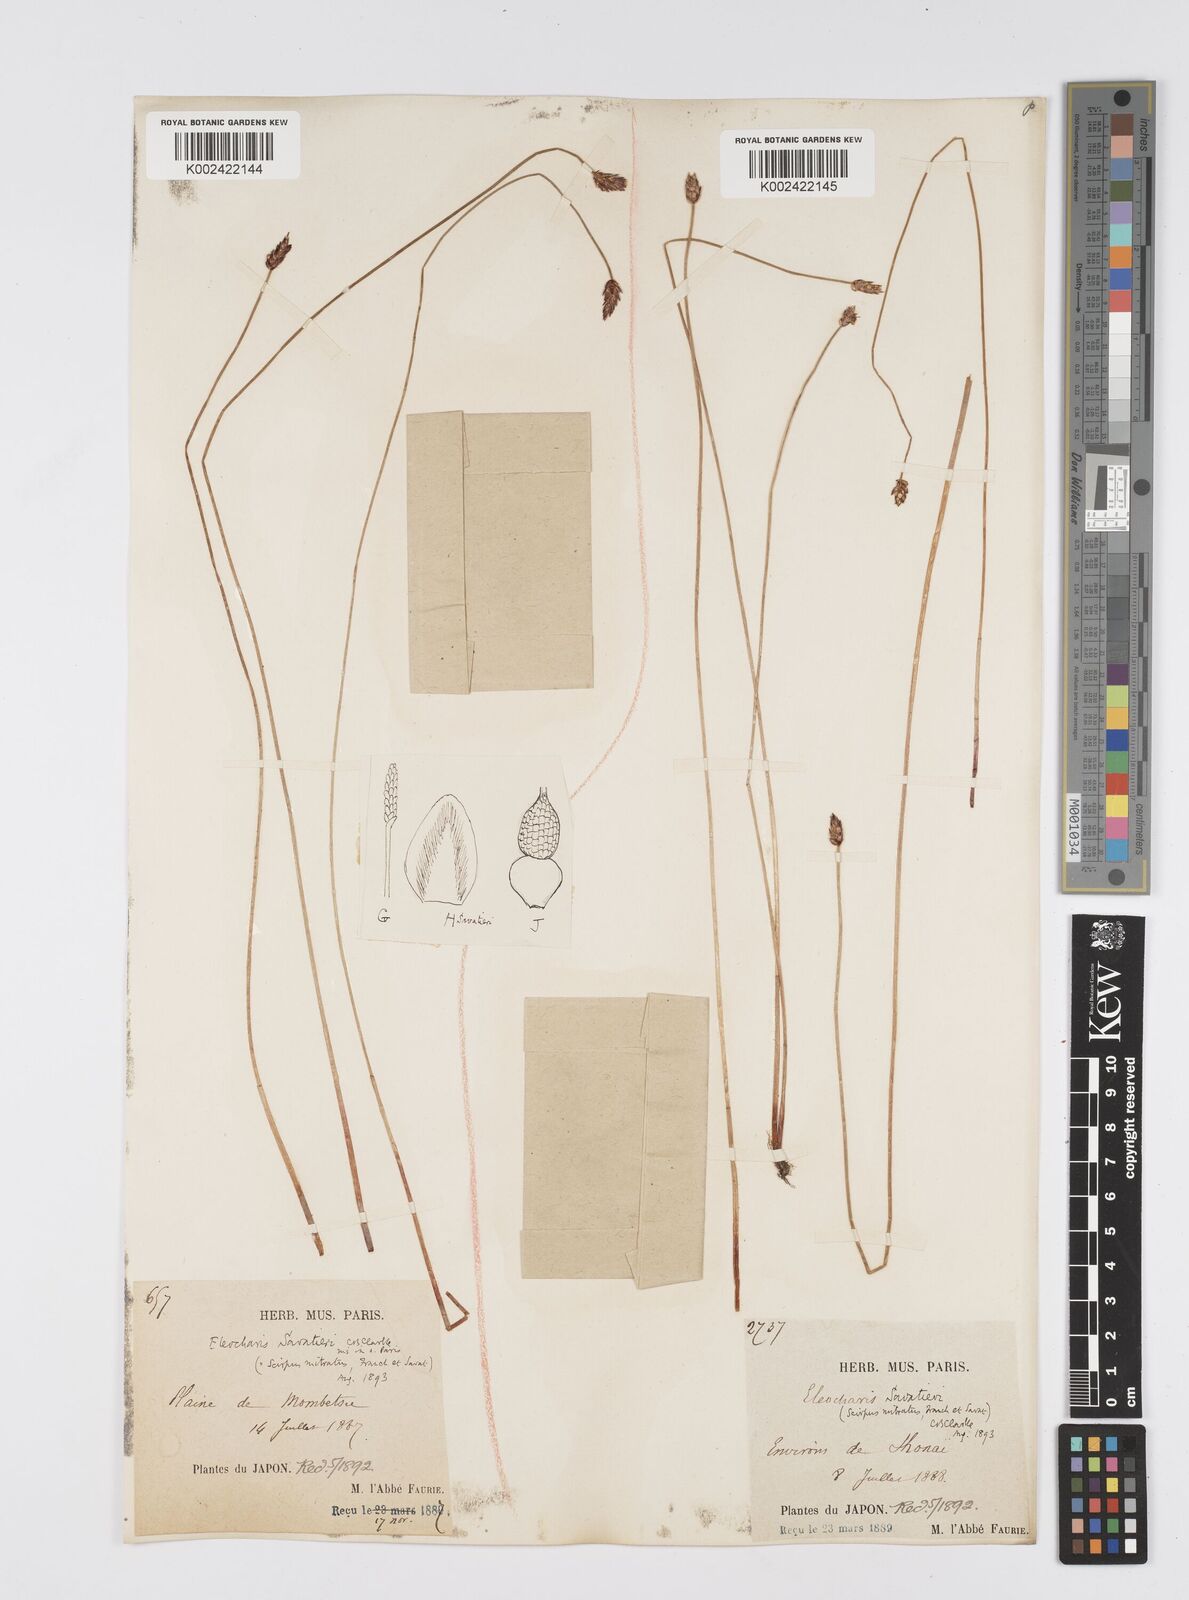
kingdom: Plantae
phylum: Tracheophyta
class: Liliopsida
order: Poales
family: Cyperaceae
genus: Eleocharis
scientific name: Eleocharis kamtschatica
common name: Kamchatka spikerush
